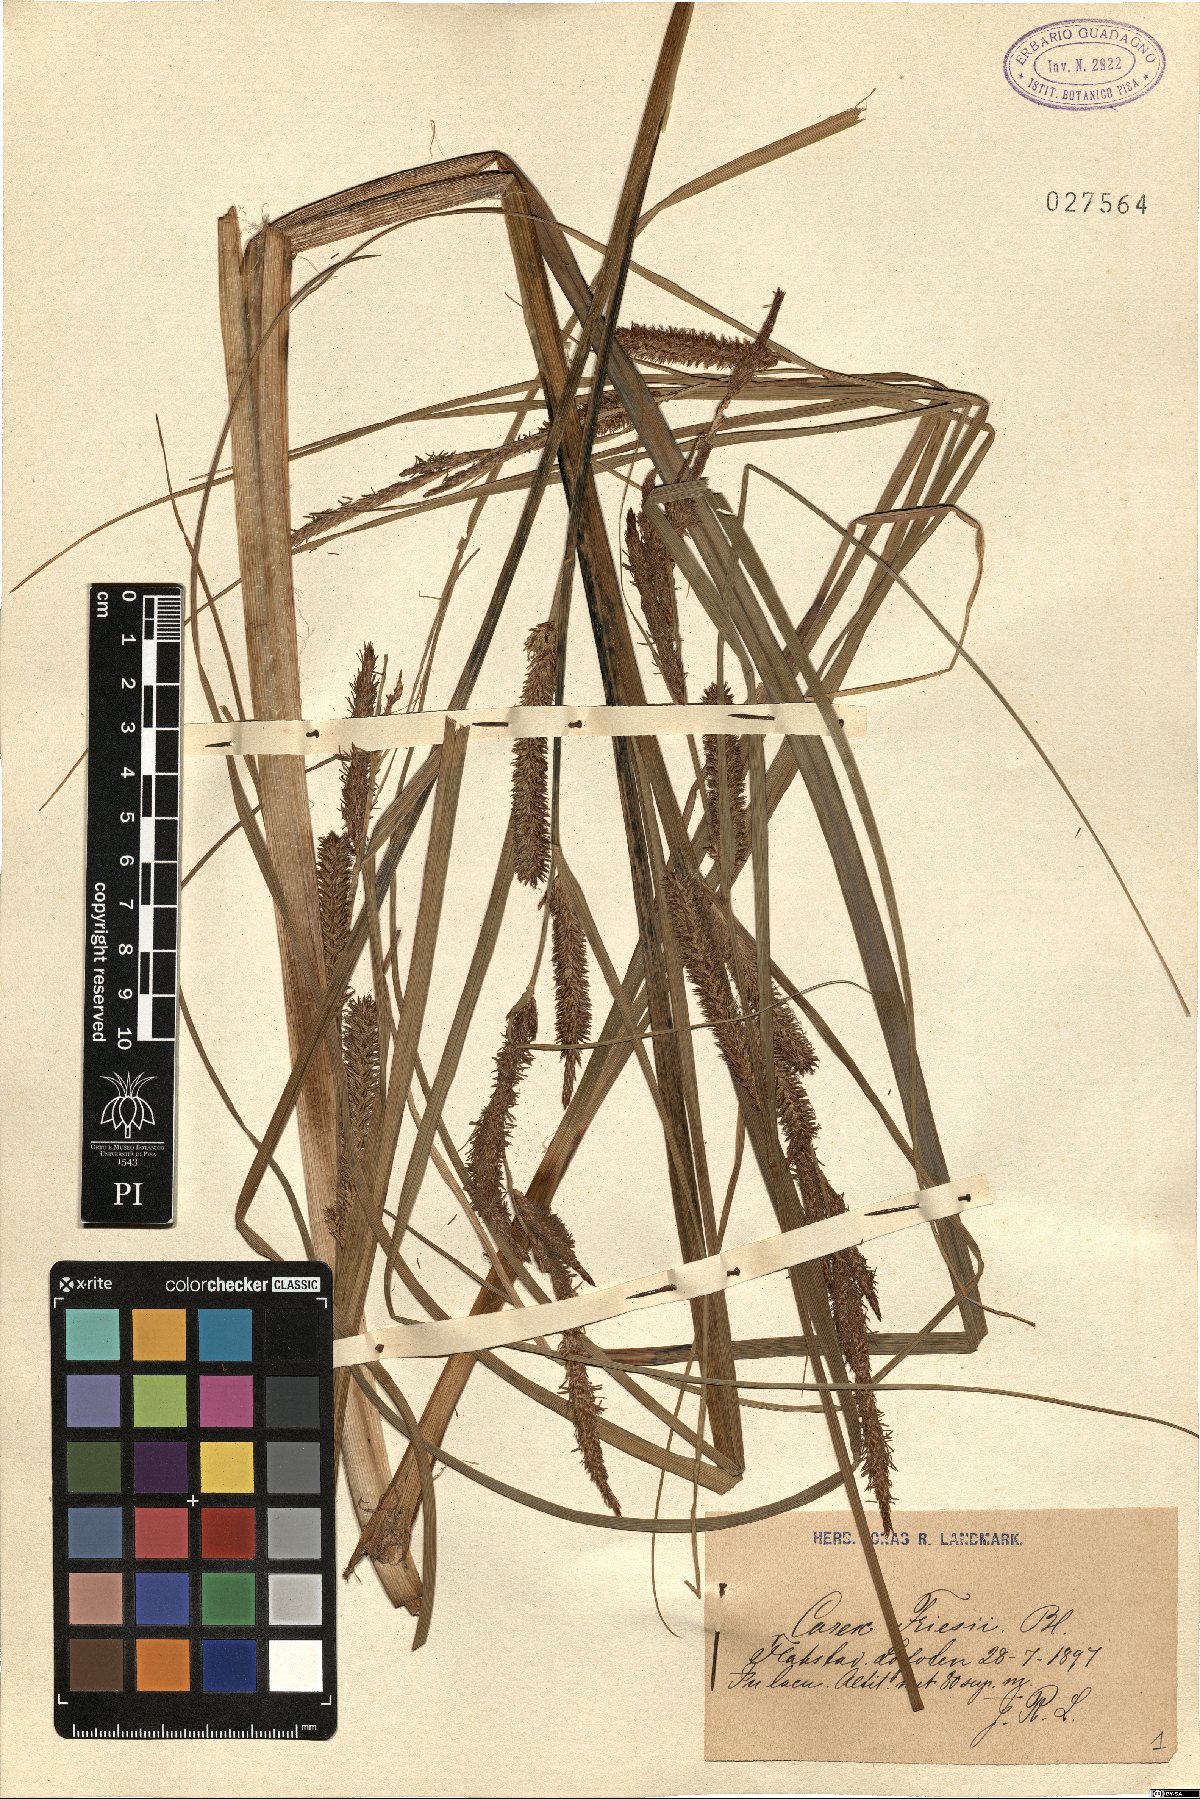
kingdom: Plantae
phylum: Tracheophyta
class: Liliopsida
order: Poales
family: Cyperaceae
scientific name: Cyperaceae
